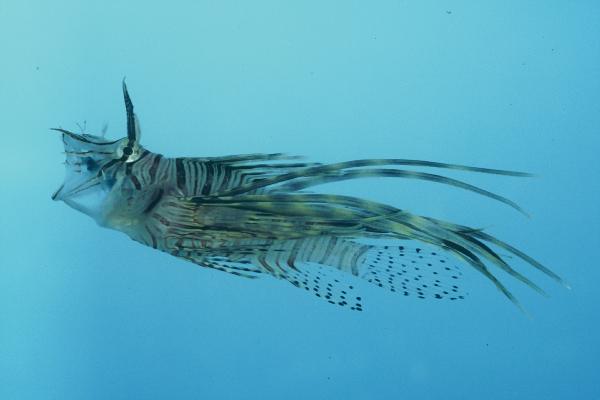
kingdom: Animalia
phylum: Chordata
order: Scorpaeniformes
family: Scorpaenidae
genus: Pterois
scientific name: Pterois miles
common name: Devil firefish
